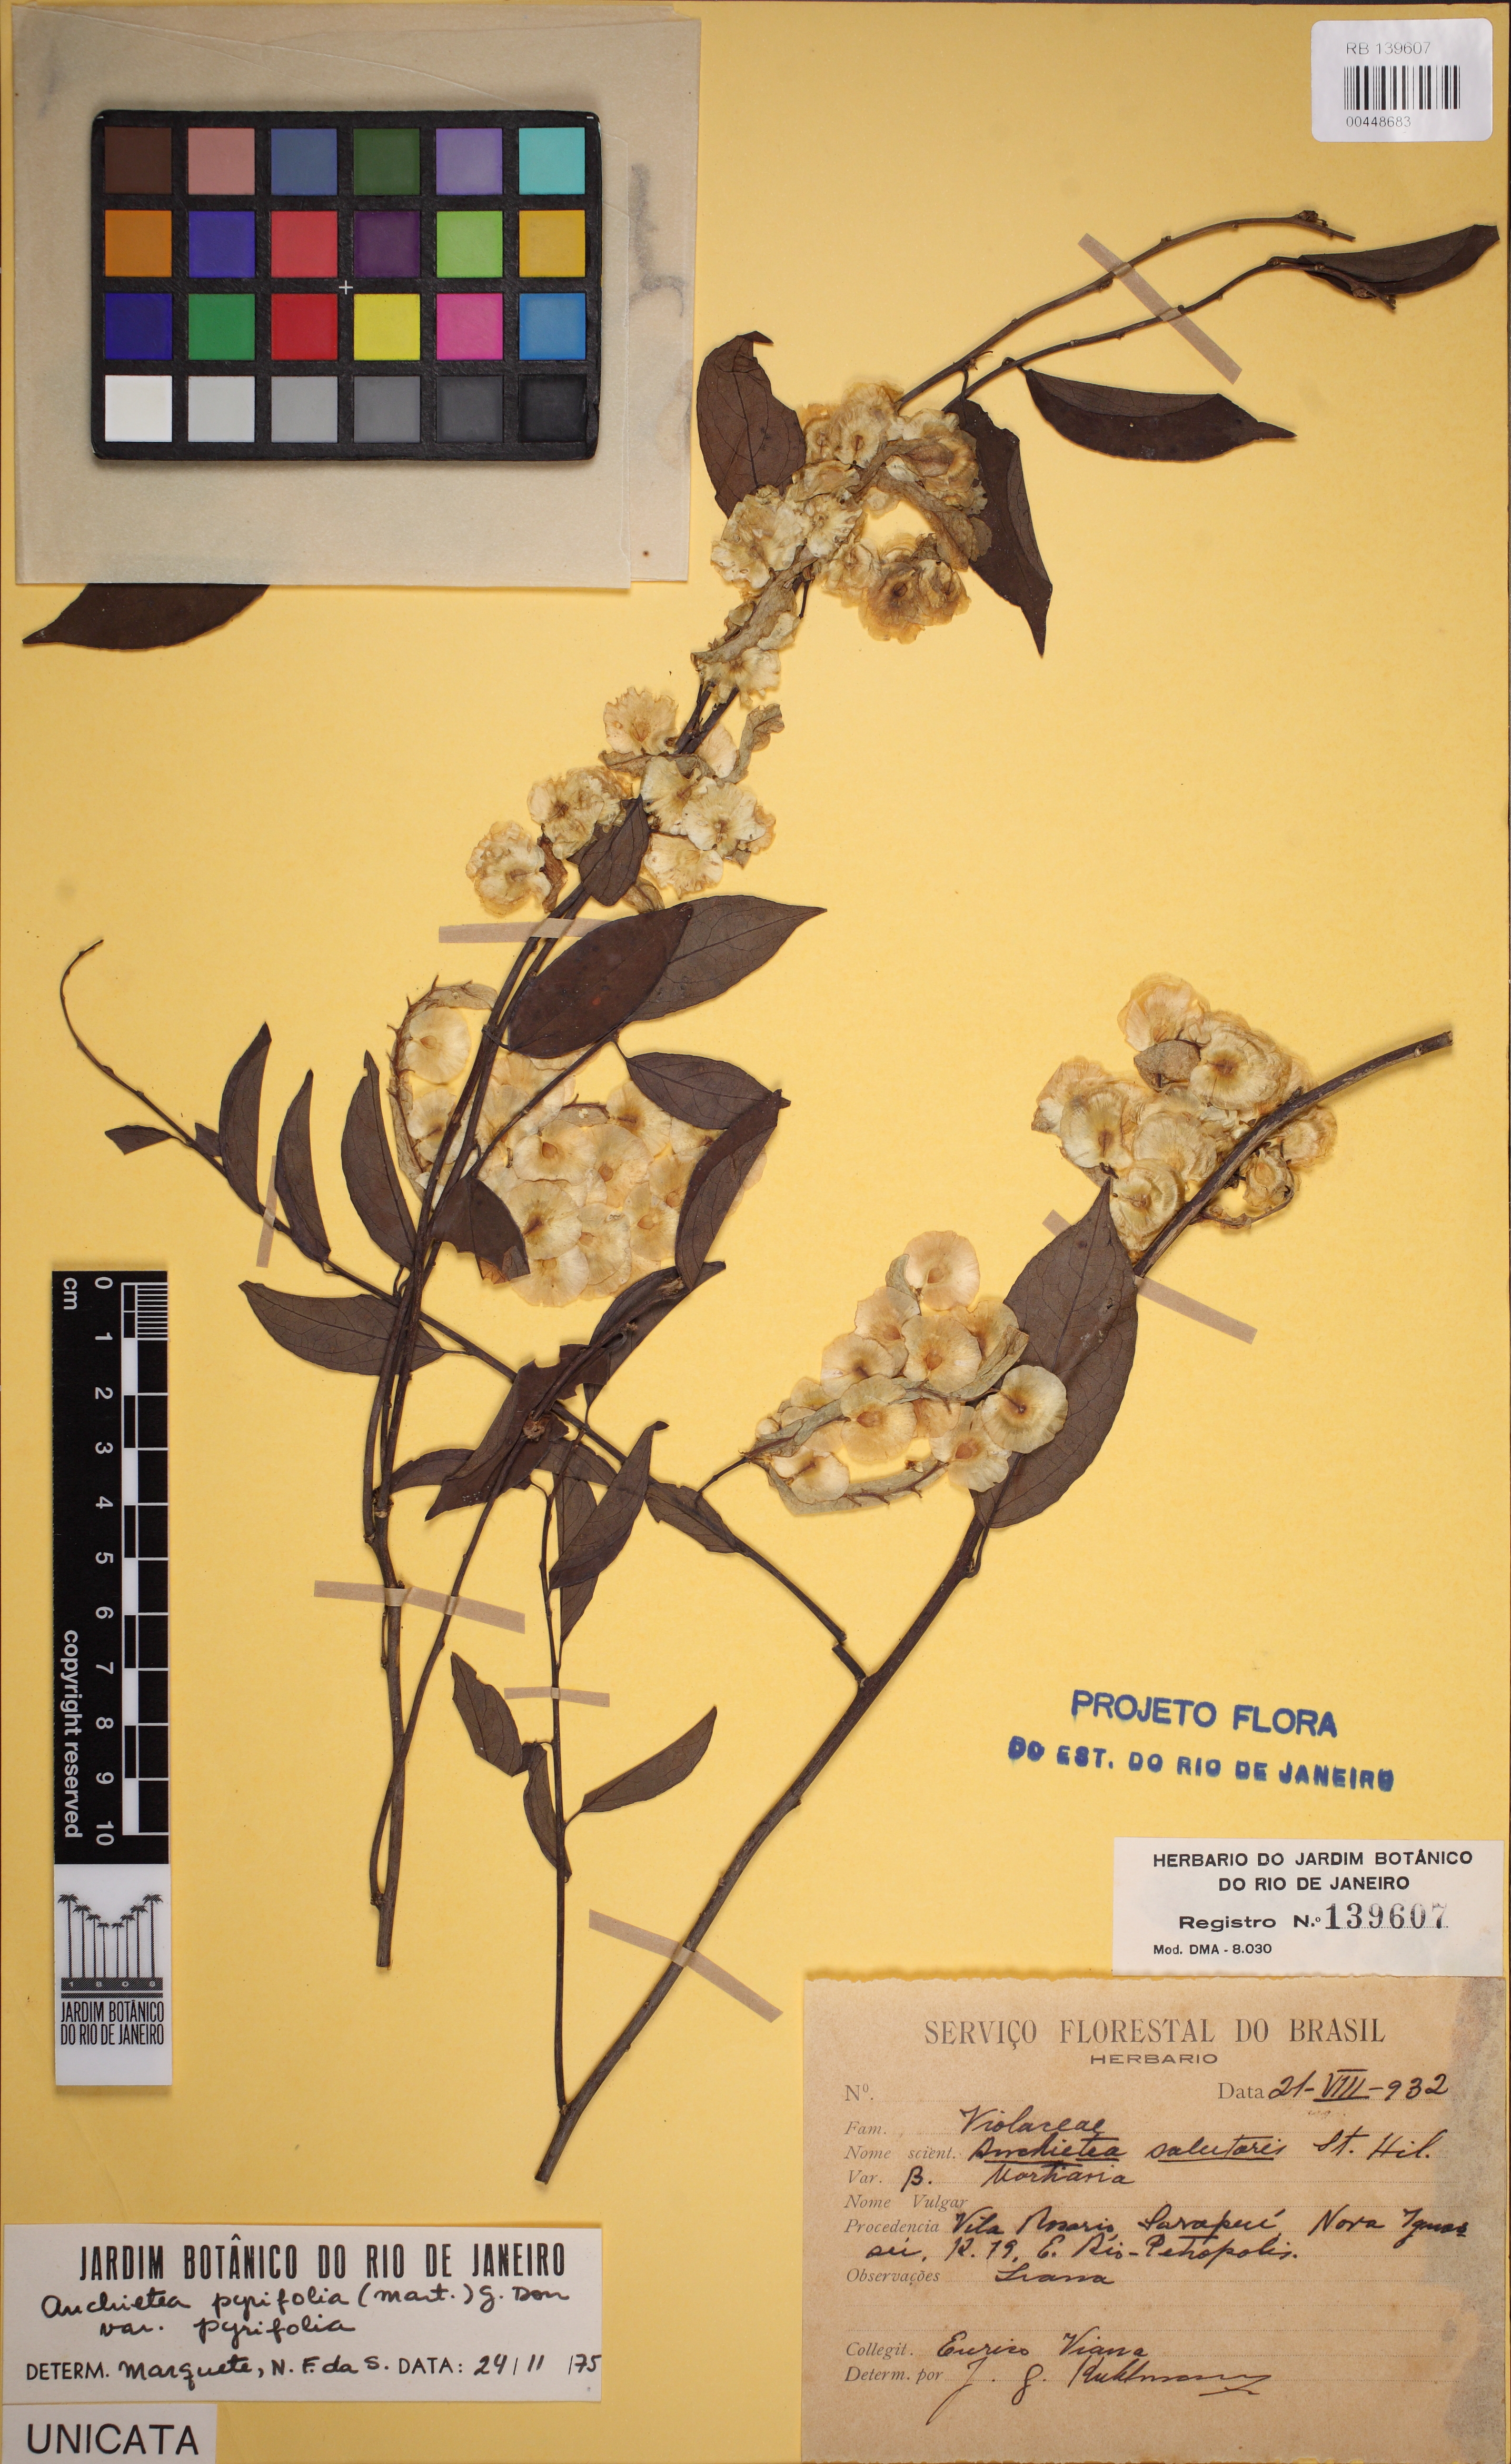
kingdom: Plantae
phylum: Tracheophyta
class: Magnoliopsida
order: Malpighiales
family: Violaceae
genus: Anchietea
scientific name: Anchietea pyrifolia
